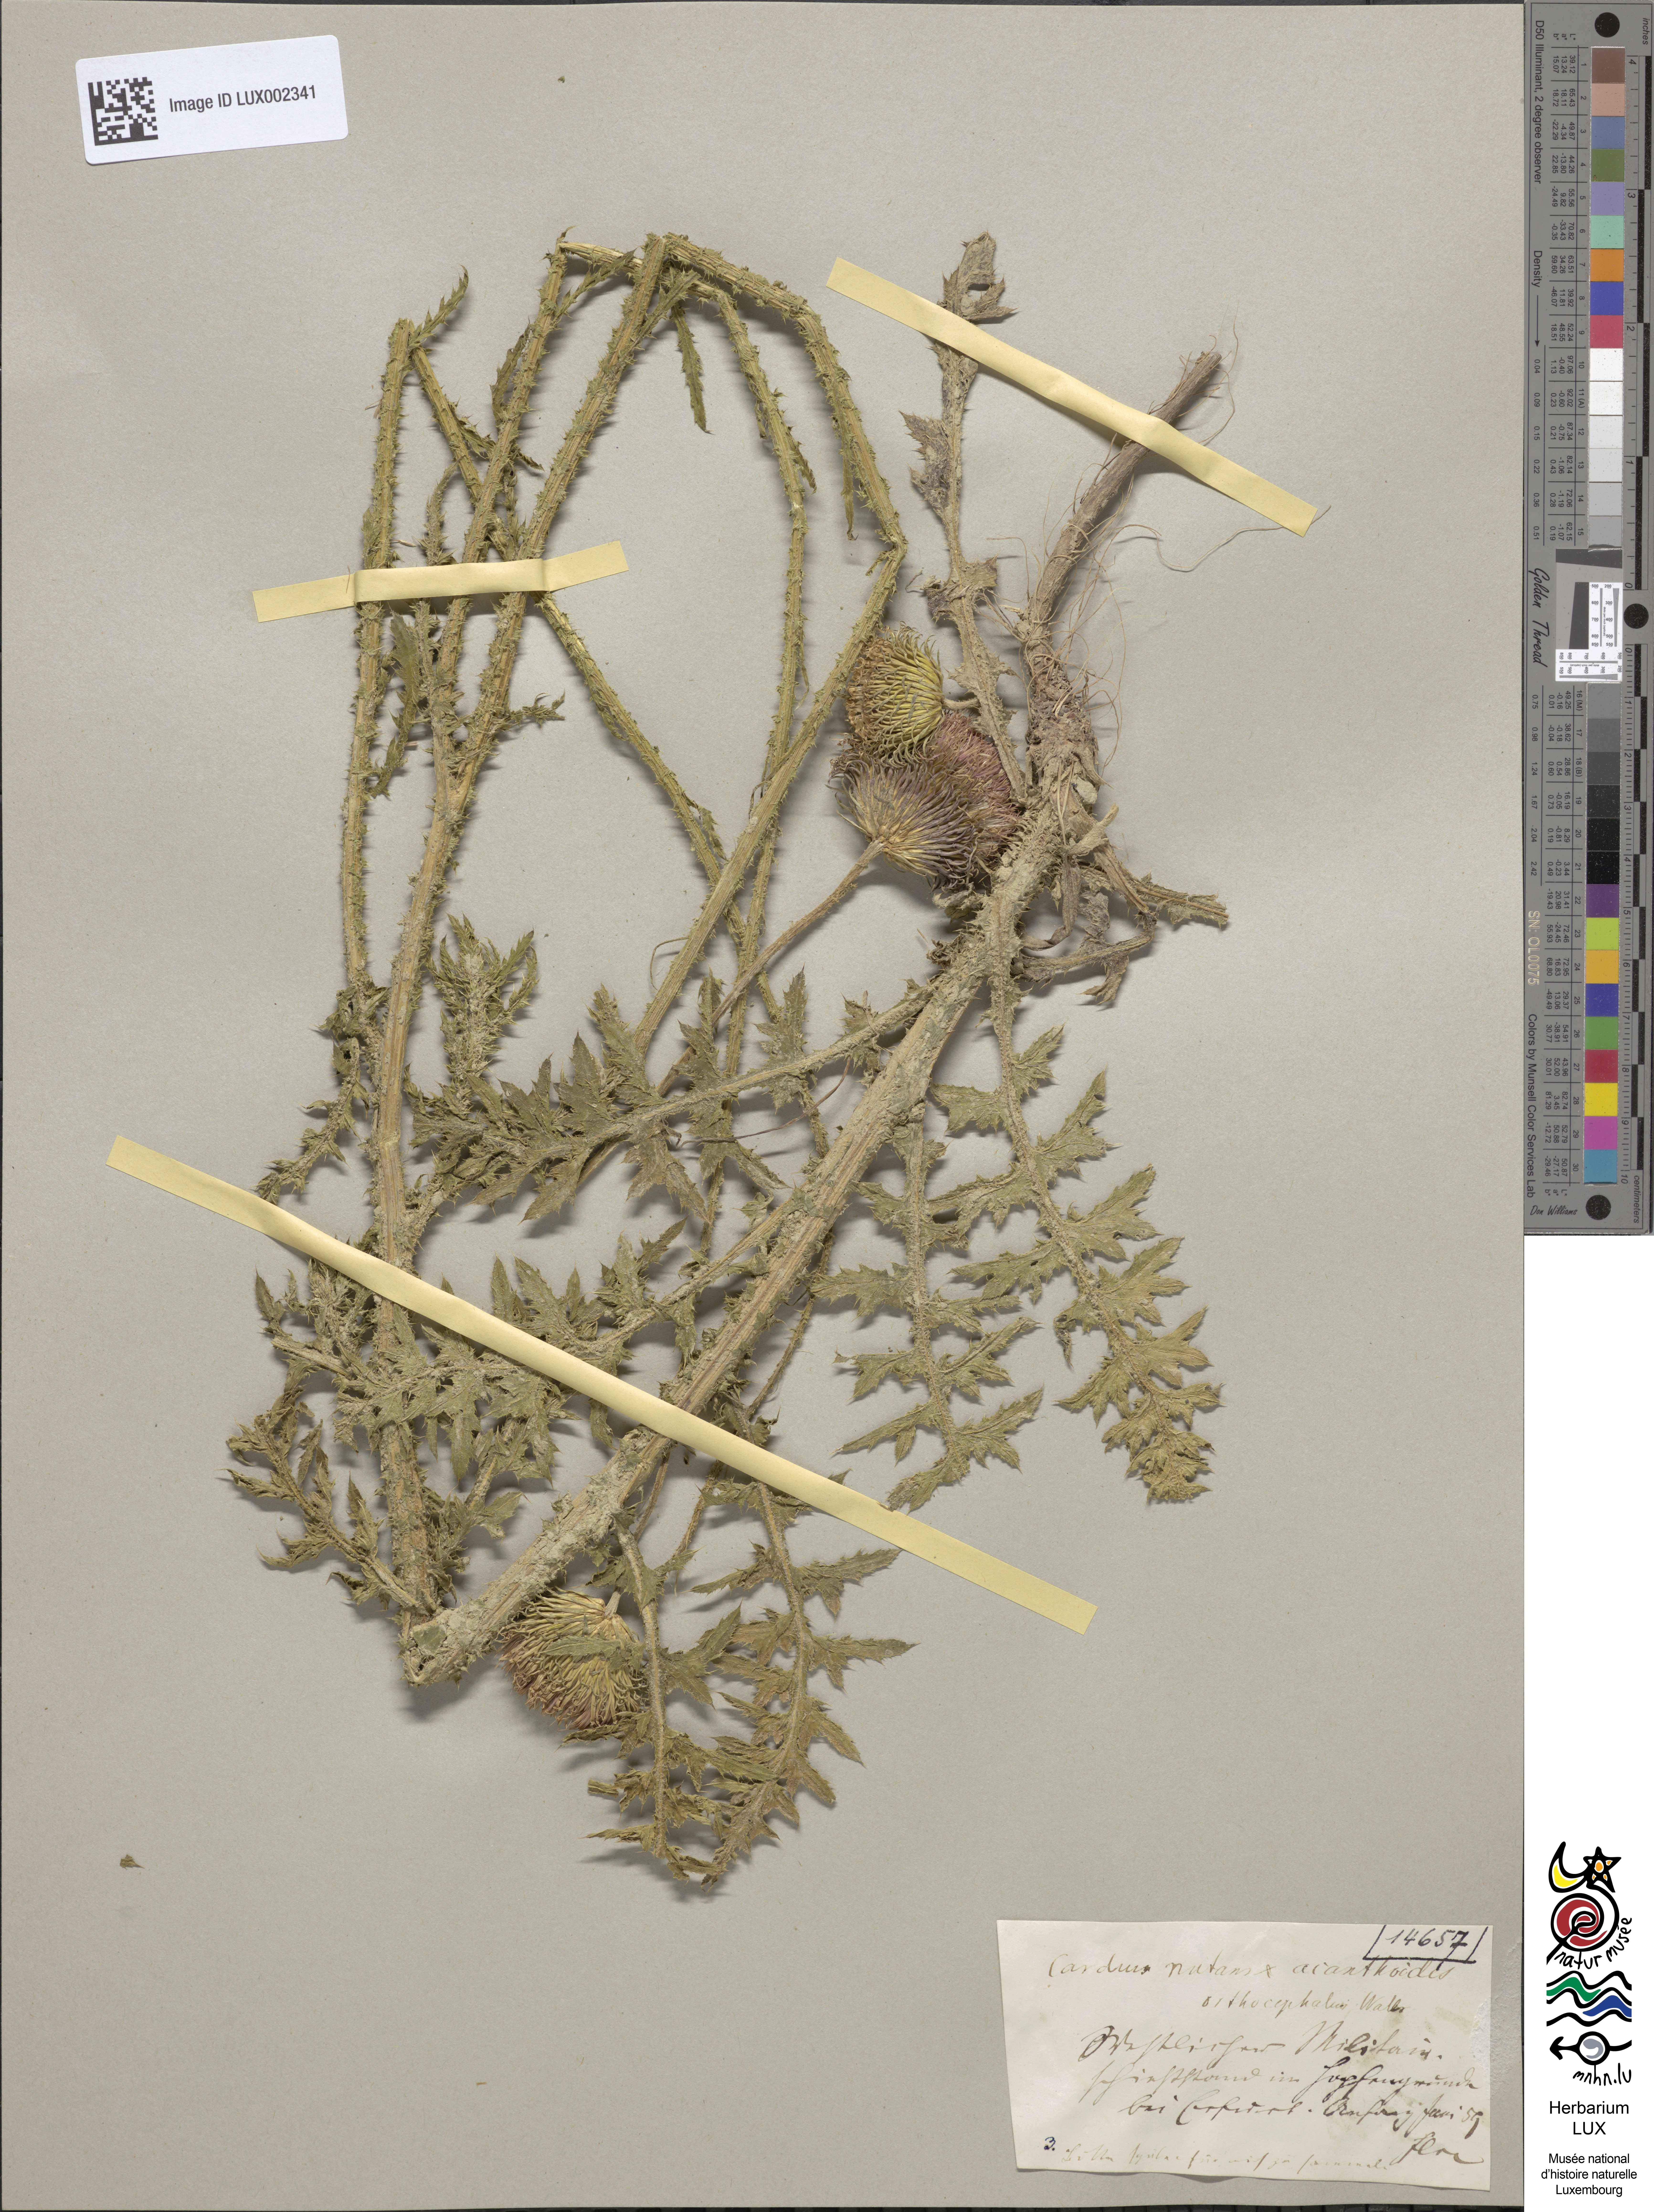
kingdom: Plantae
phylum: Tracheophyta
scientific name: Tracheophyta
